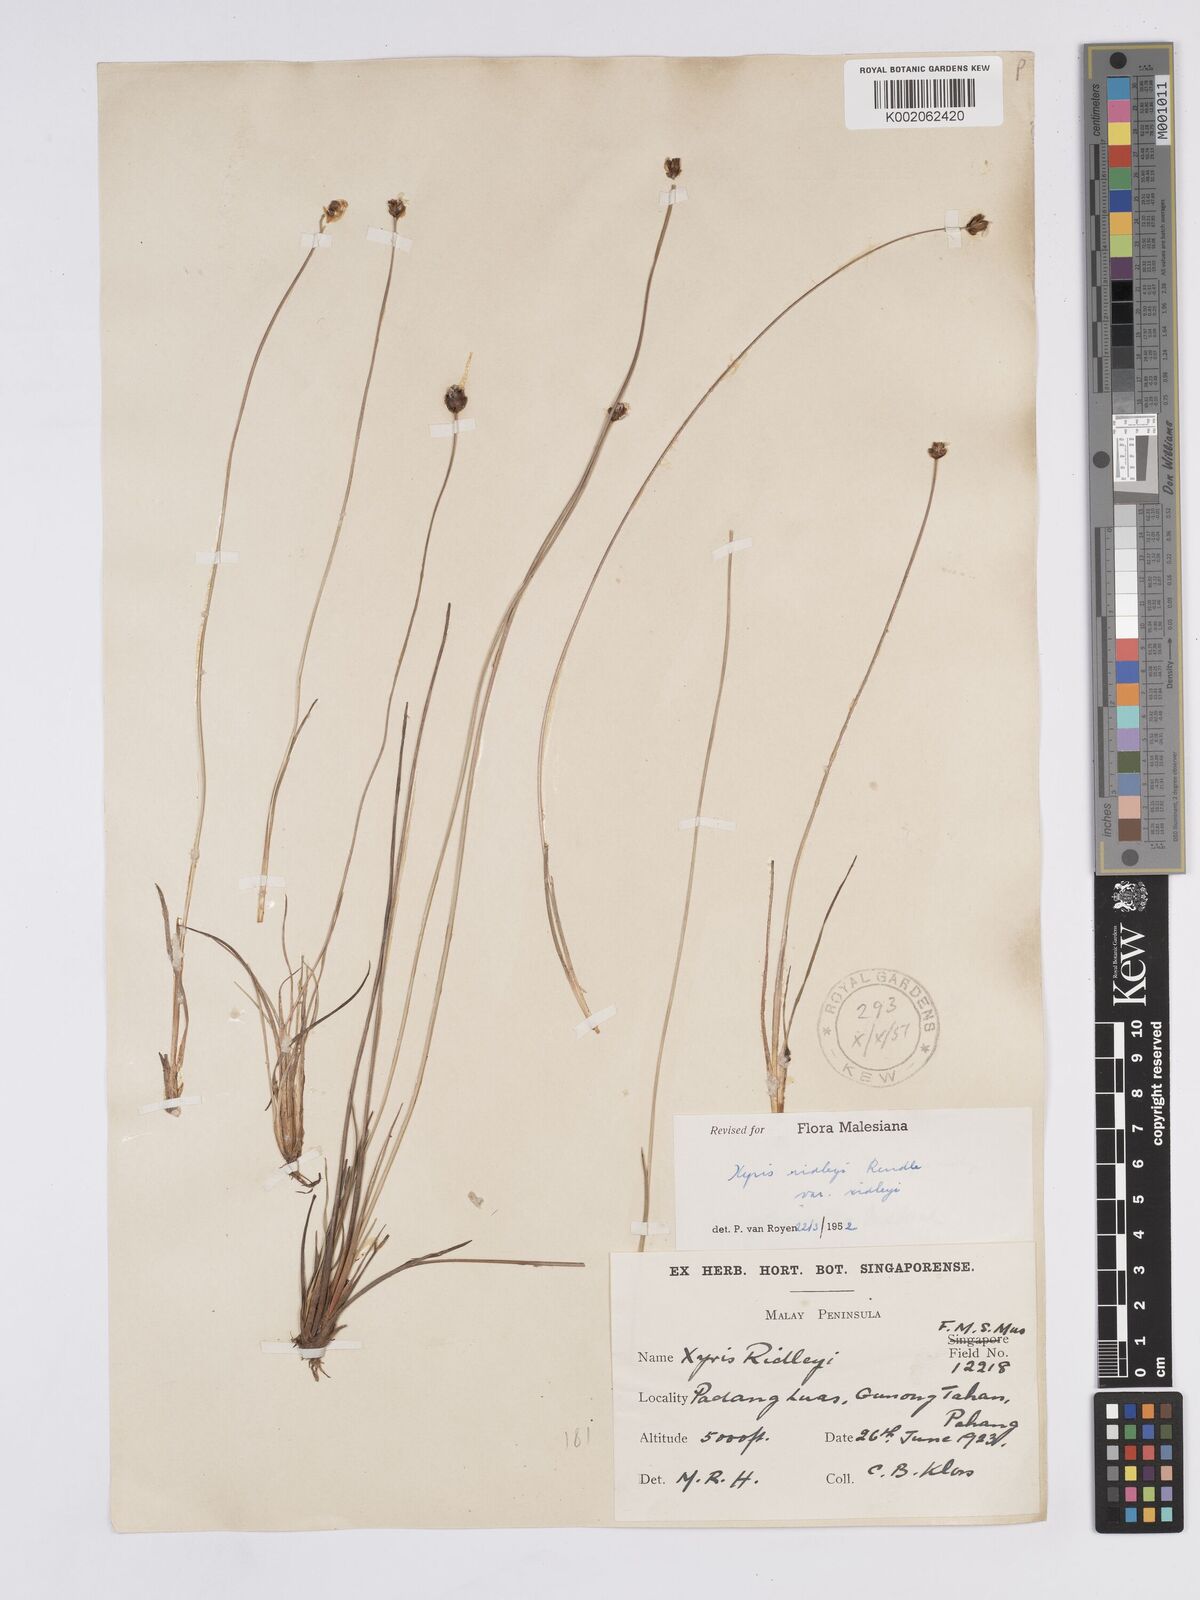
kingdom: Plantae
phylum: Tracheophyta
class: Liliopsida
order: Poales
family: Xyridaceae
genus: Xyris
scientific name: Xyris bancana
